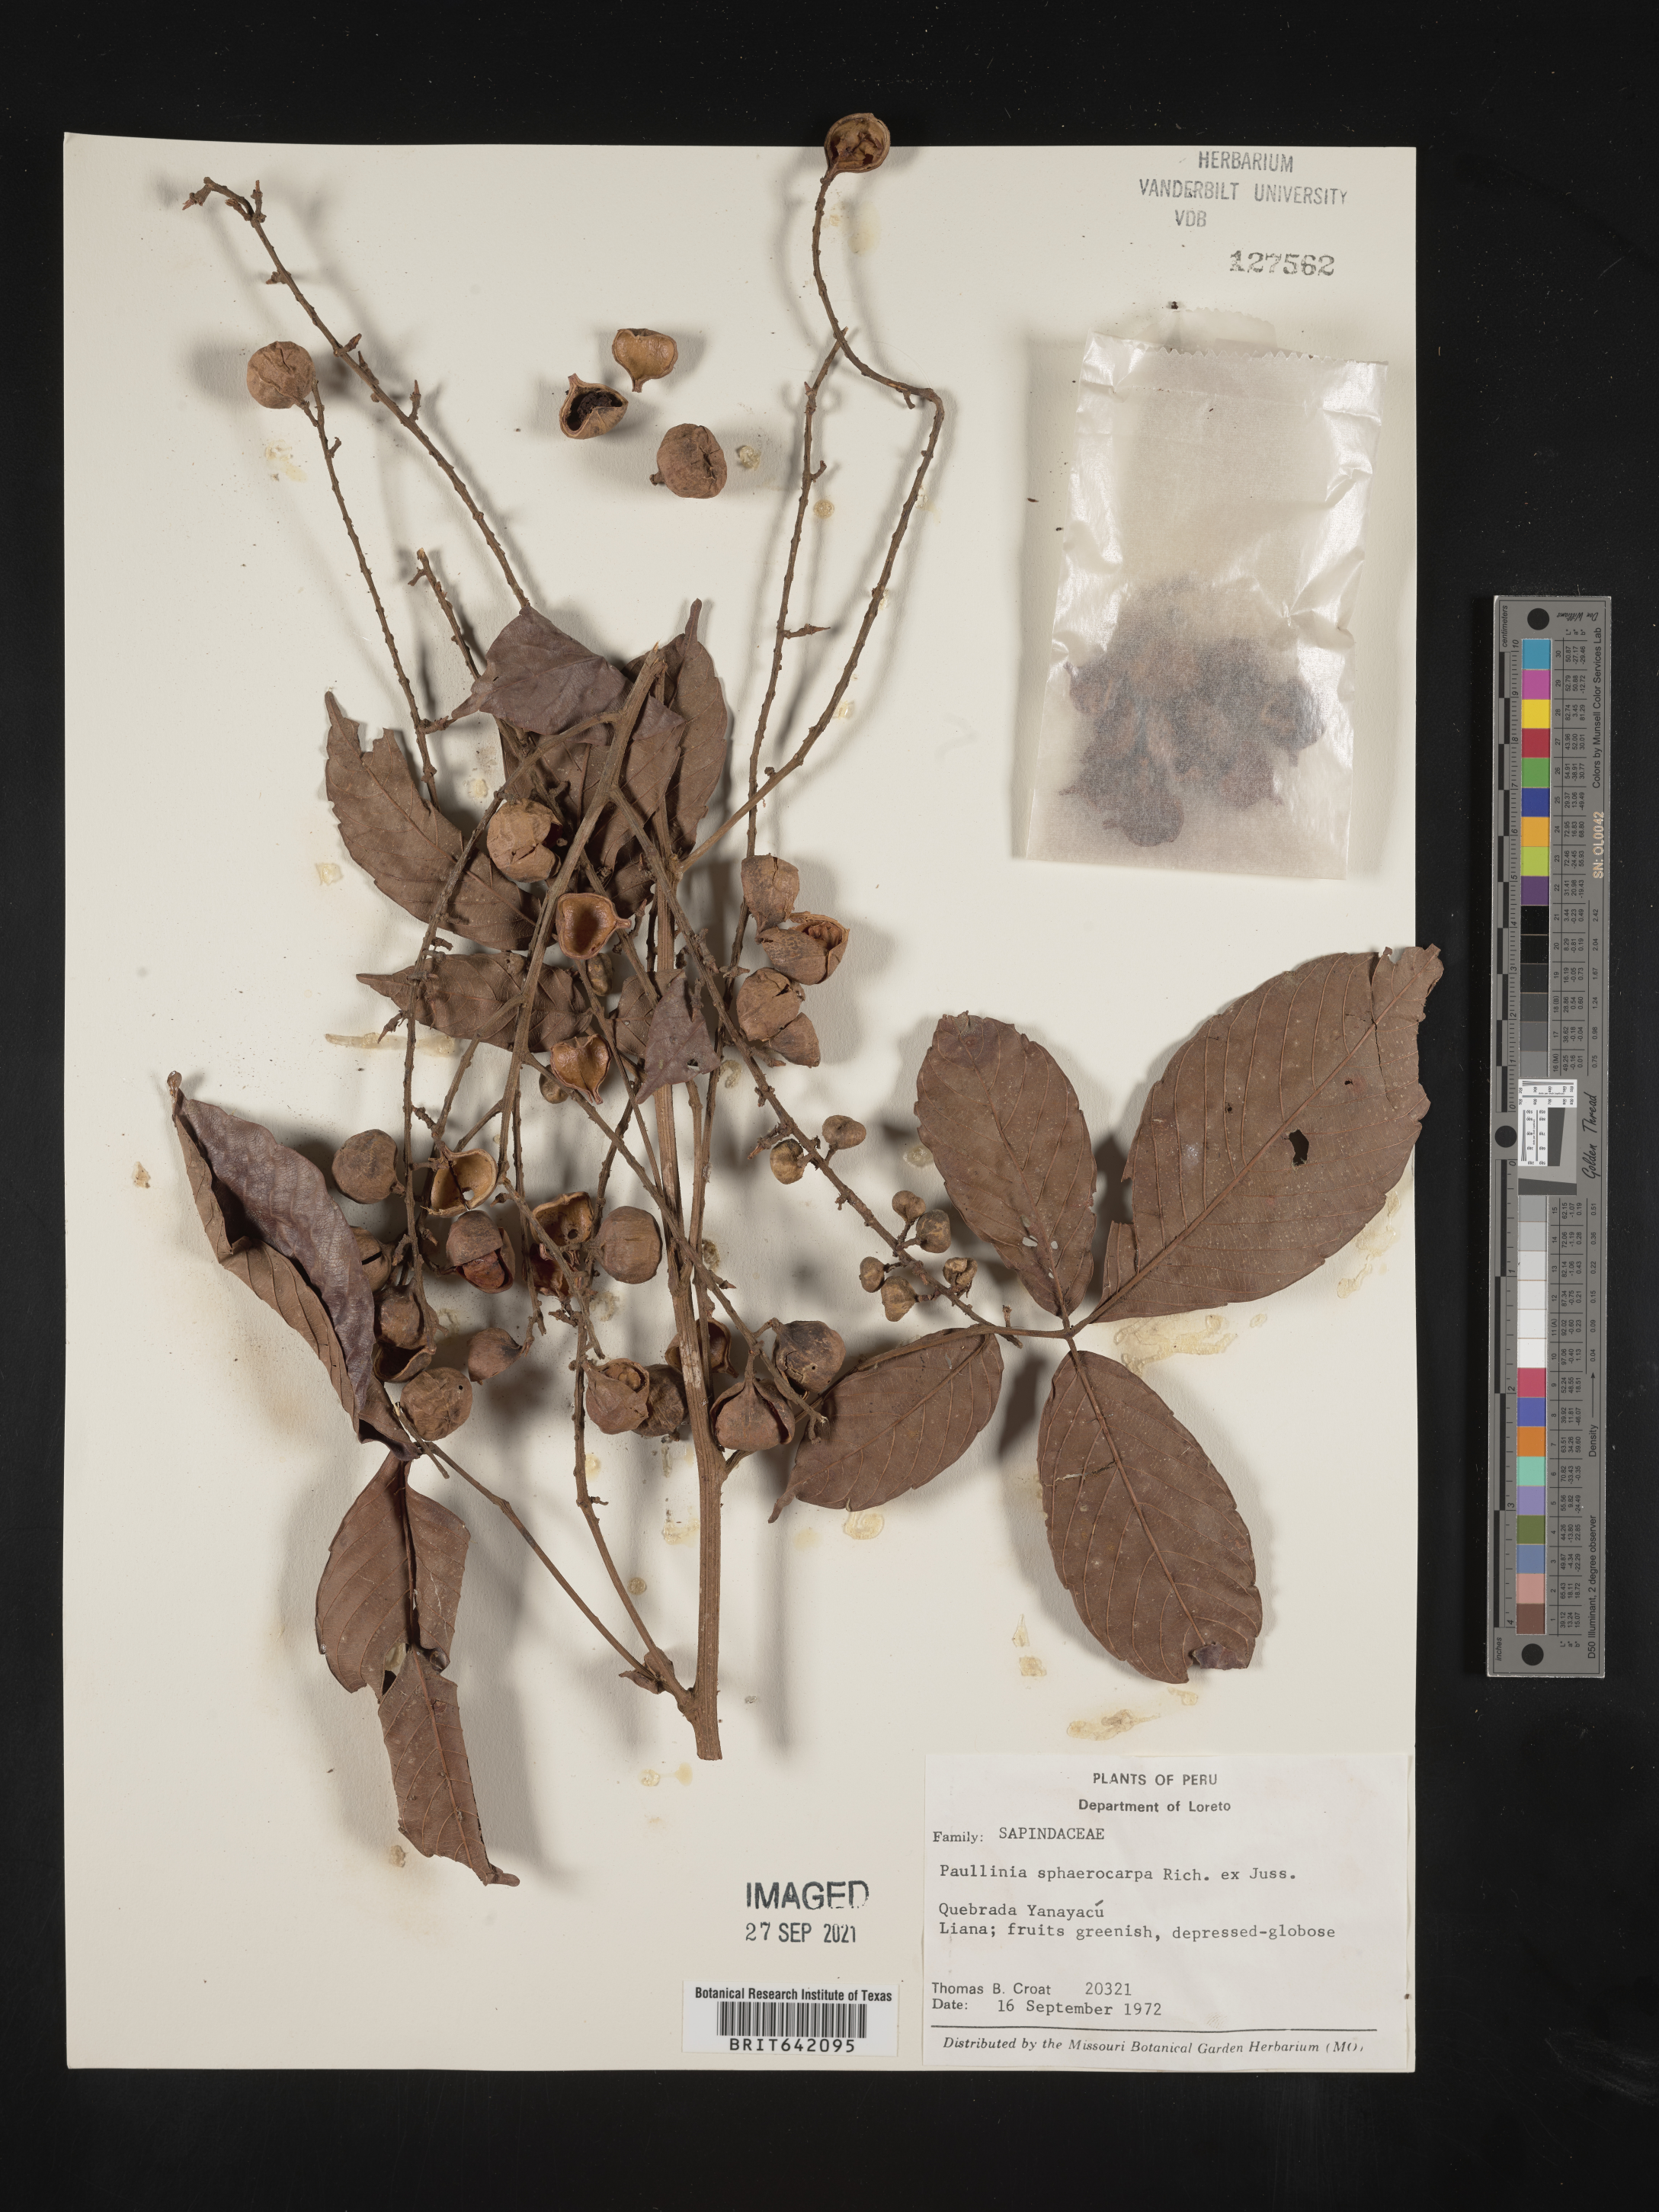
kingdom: Plantae
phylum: Tracheophyta
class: Magnoliopsida
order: Sapindales
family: Sapindaceae
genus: Paullinia
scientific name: Paullinia
